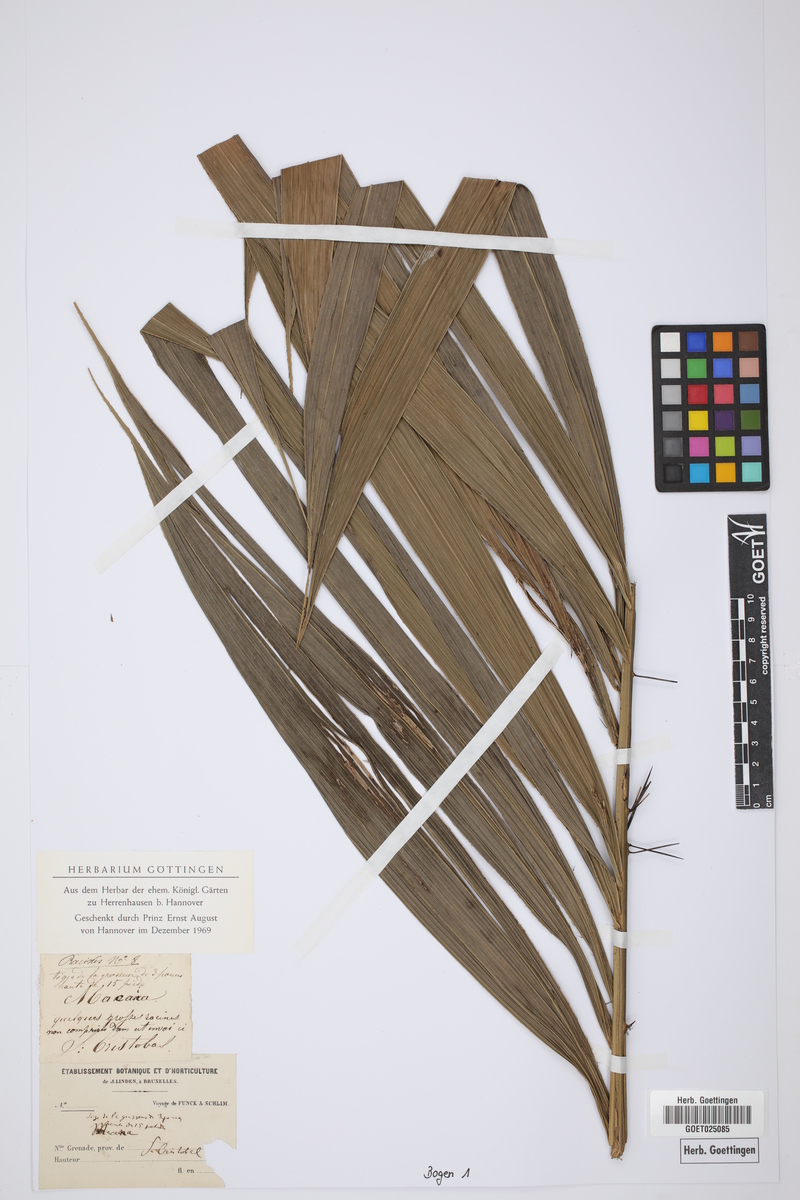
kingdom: Plantae
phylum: Tracheophyta
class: Magnoliopsida
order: Lamiales
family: Lamiaceae
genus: Majana
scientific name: Majana
